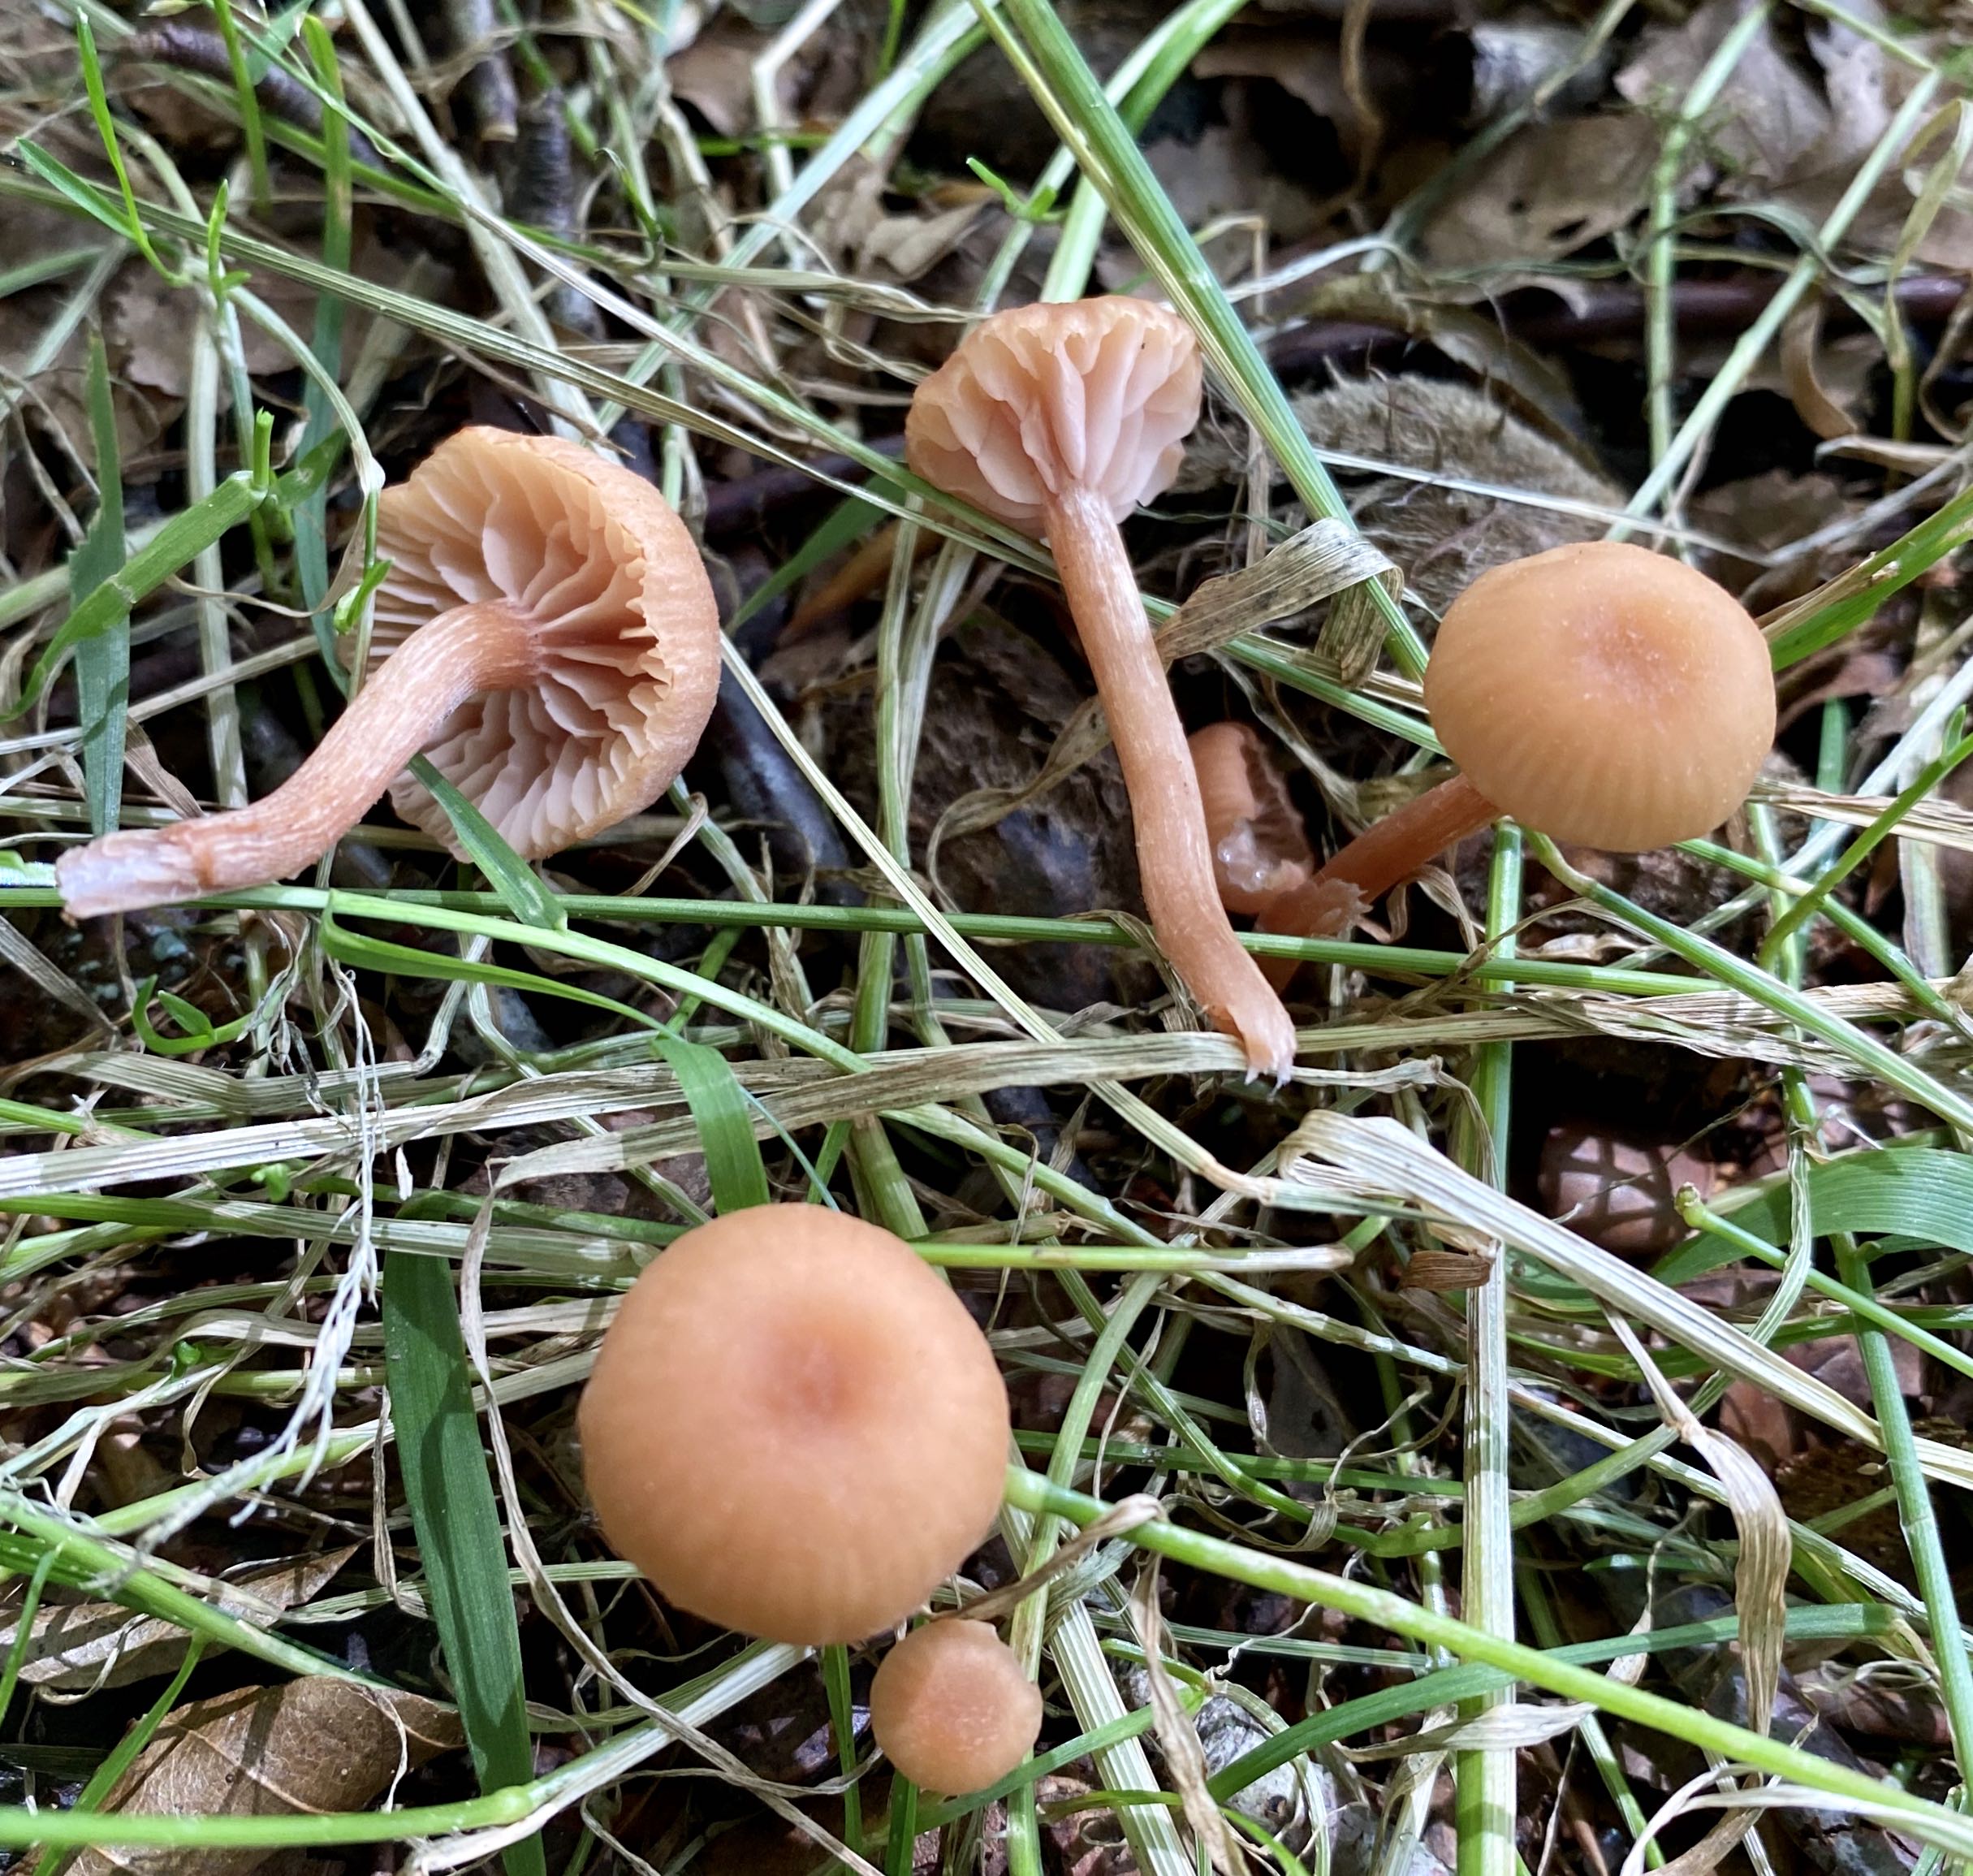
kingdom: Fungi
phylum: Basidiomycota
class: Agaricomycetes
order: Agaricales
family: Hydnangiaceae
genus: Laccaria
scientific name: Laccaria laccata
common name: rød ametysthat
